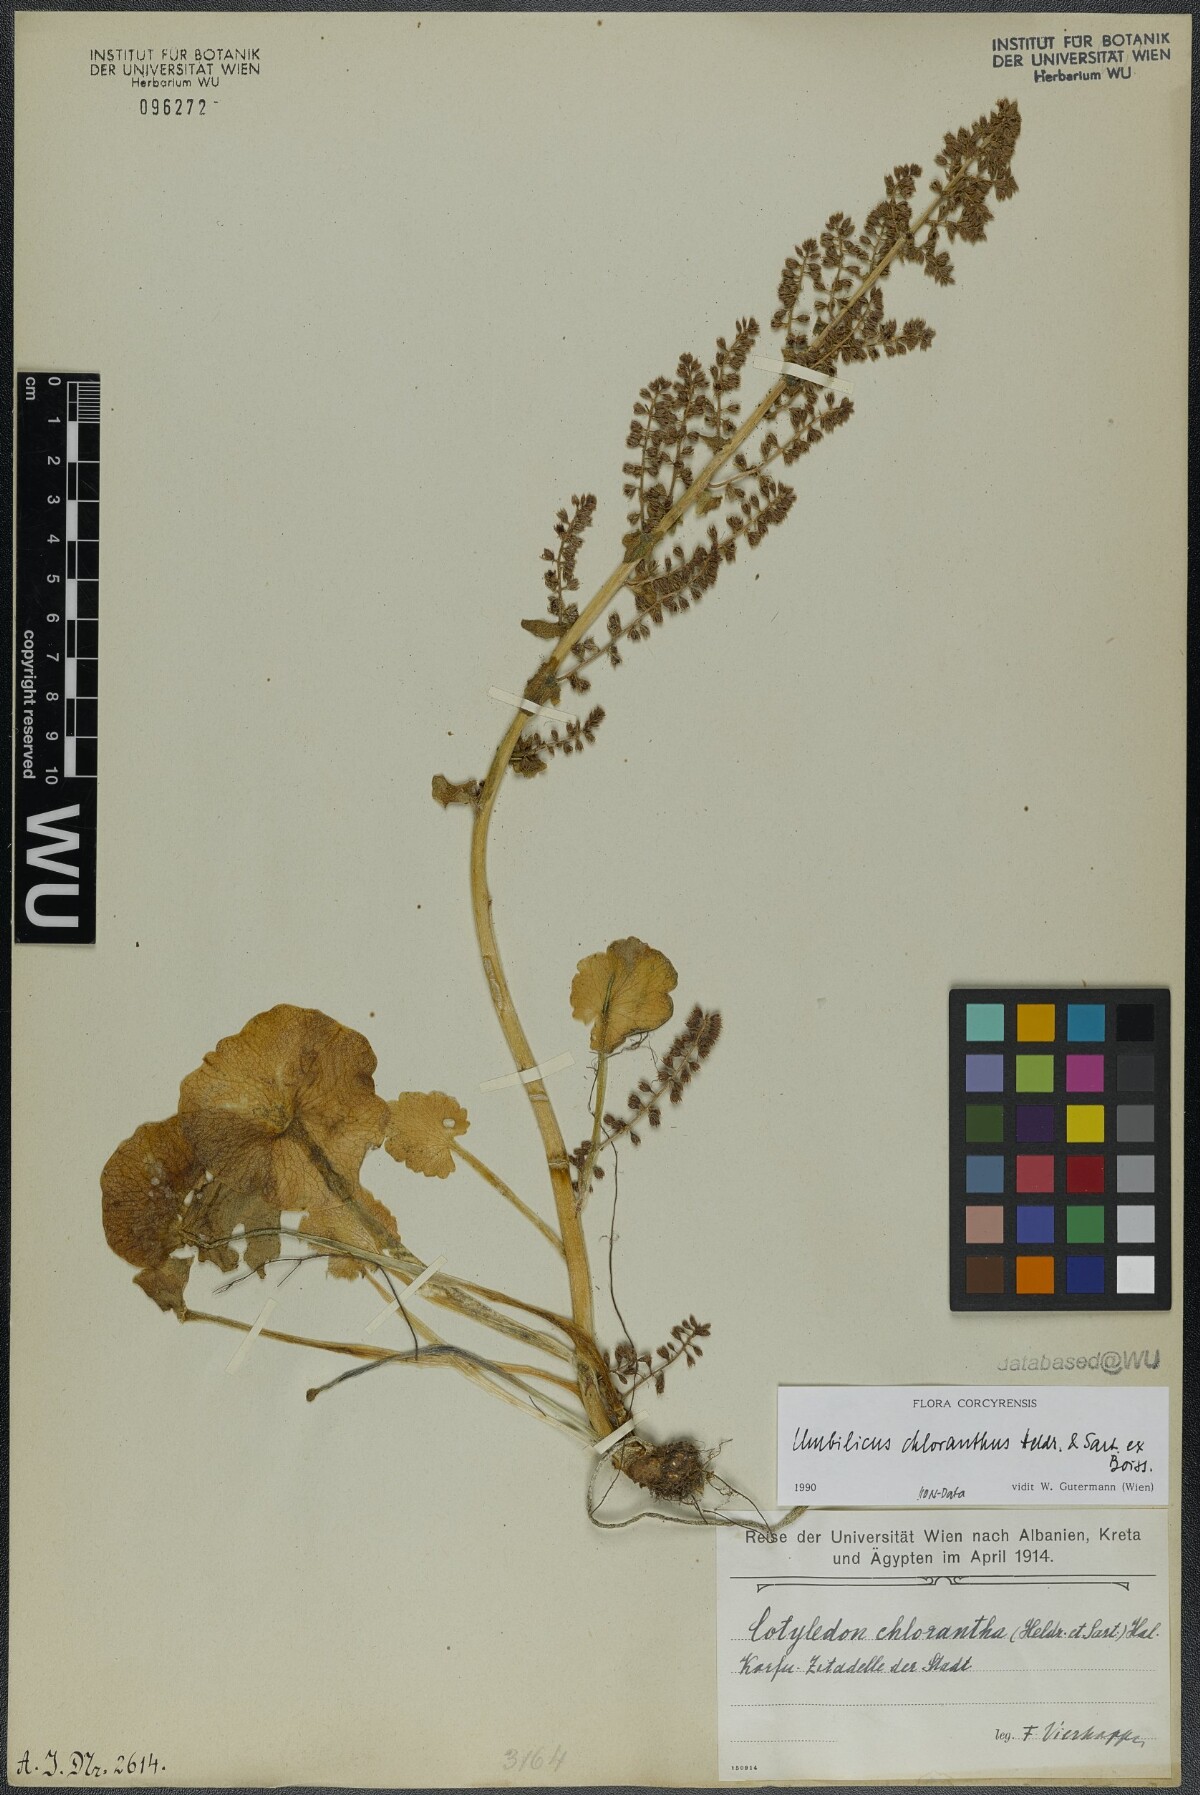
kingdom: Plantae
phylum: Tracheophyta
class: Magnoliopsida
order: Saxifragales
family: Crassulaceae
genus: Umbilicus
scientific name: Umbilicus chloranthus
